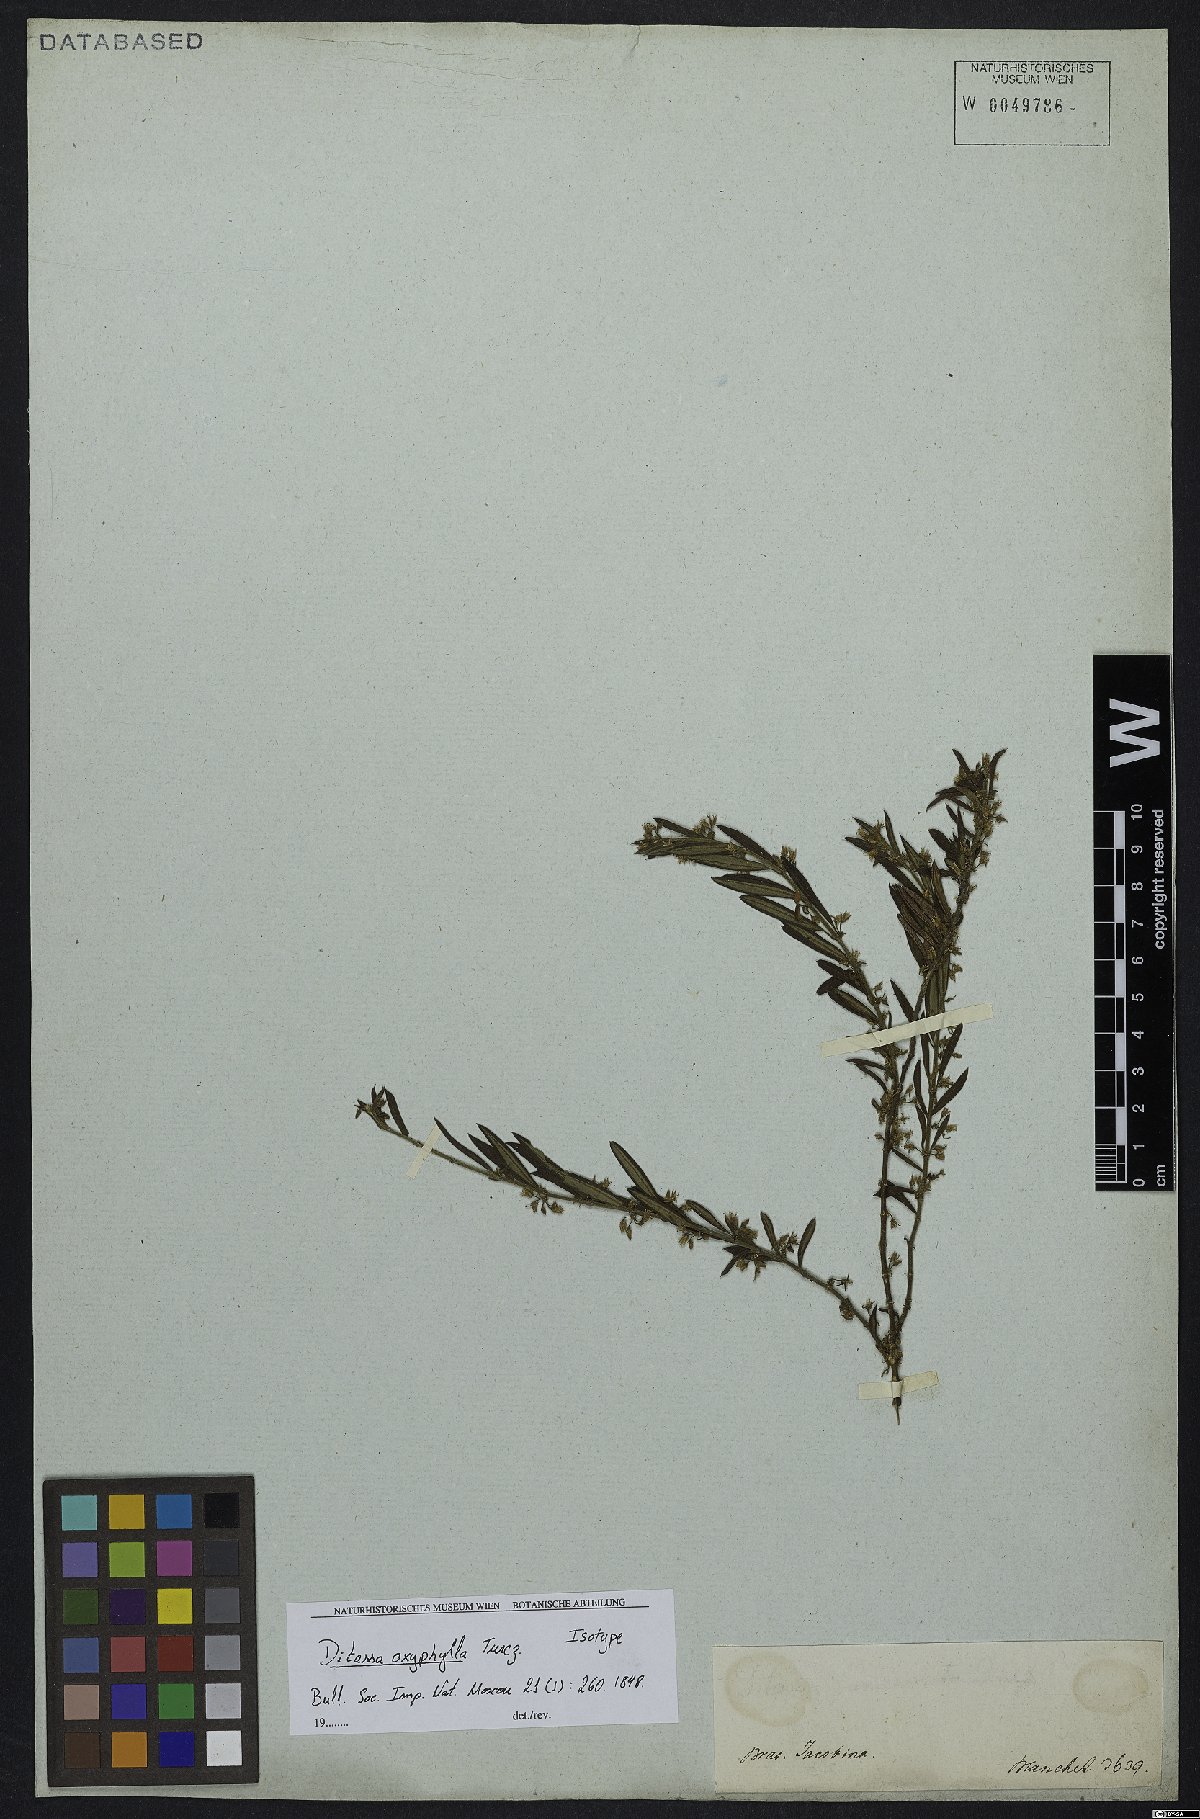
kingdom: Plantae
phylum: Tracheophyta
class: Magnoliopsida
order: Gentianales
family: Apocynaceae
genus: Ditassa
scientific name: Ditassa oxyphylla
